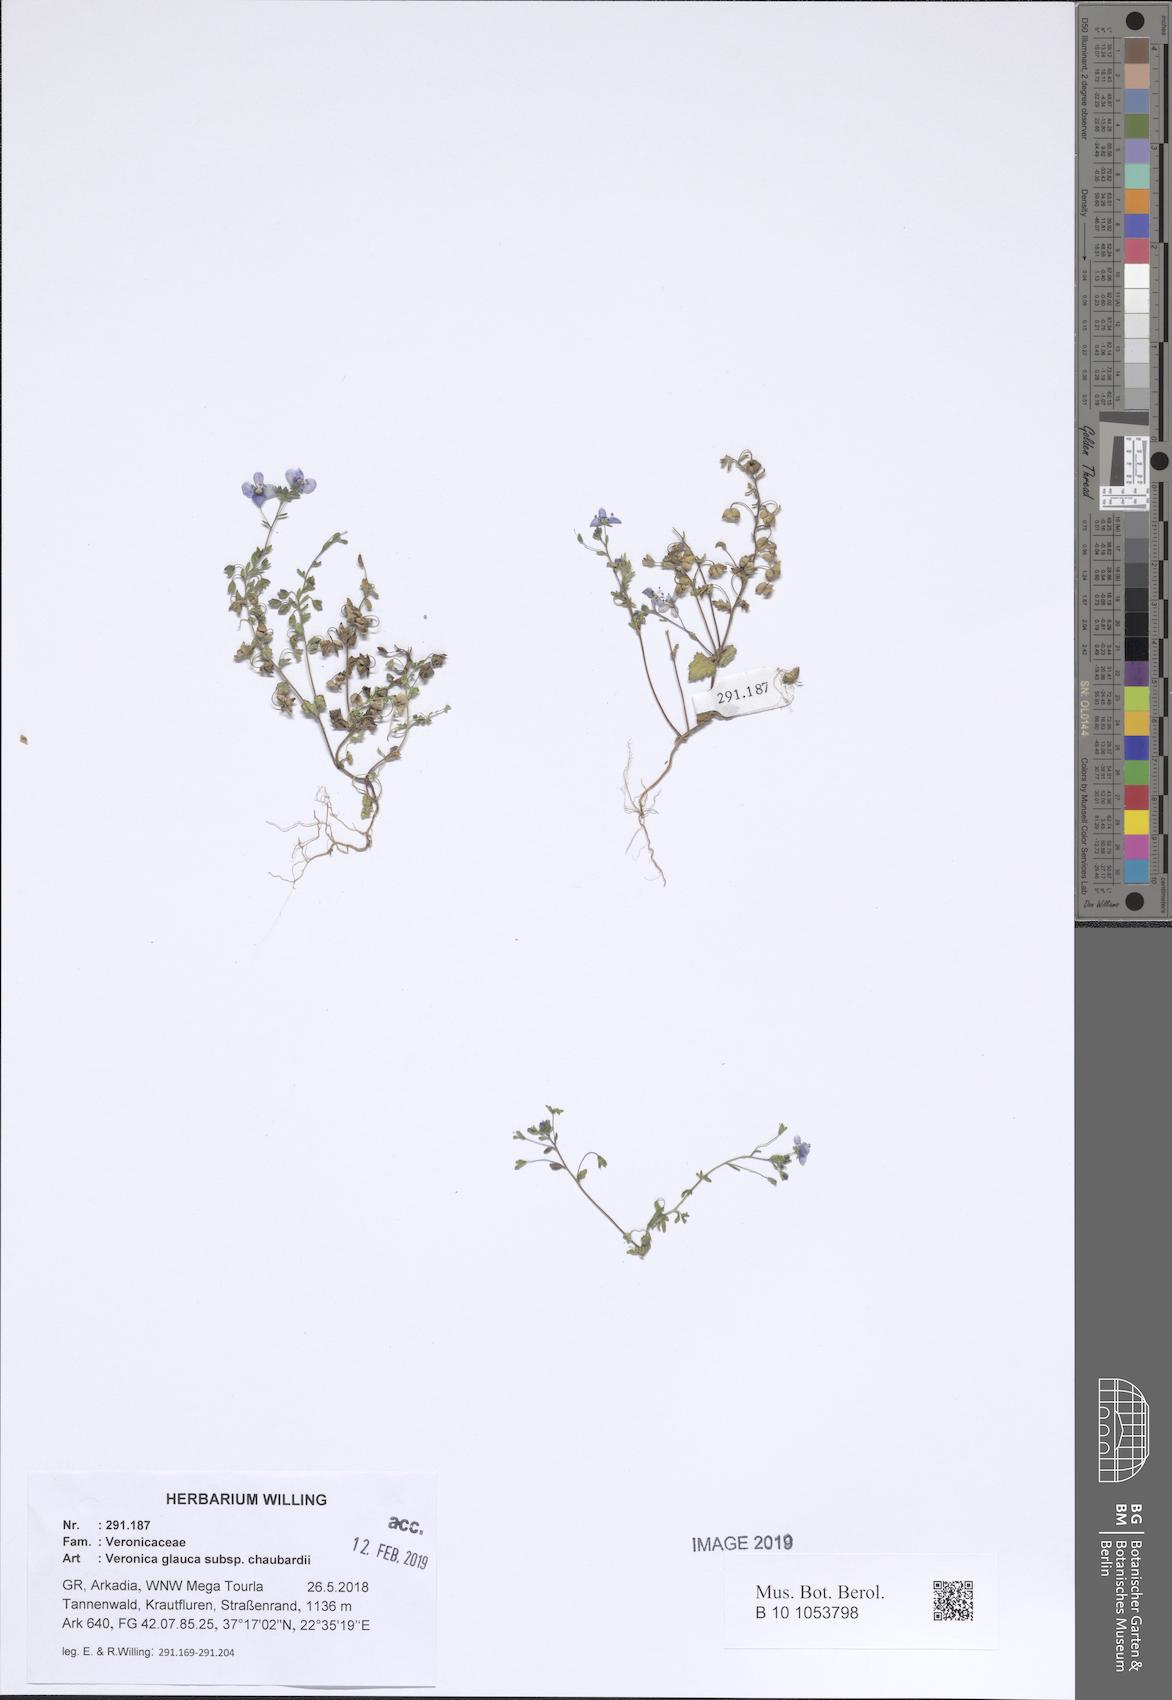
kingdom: Plantae
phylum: Tracheophyta
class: Magnoliopsida
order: Lamiales
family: Plantaginaceae
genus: Veronica
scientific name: Veronica glauca
